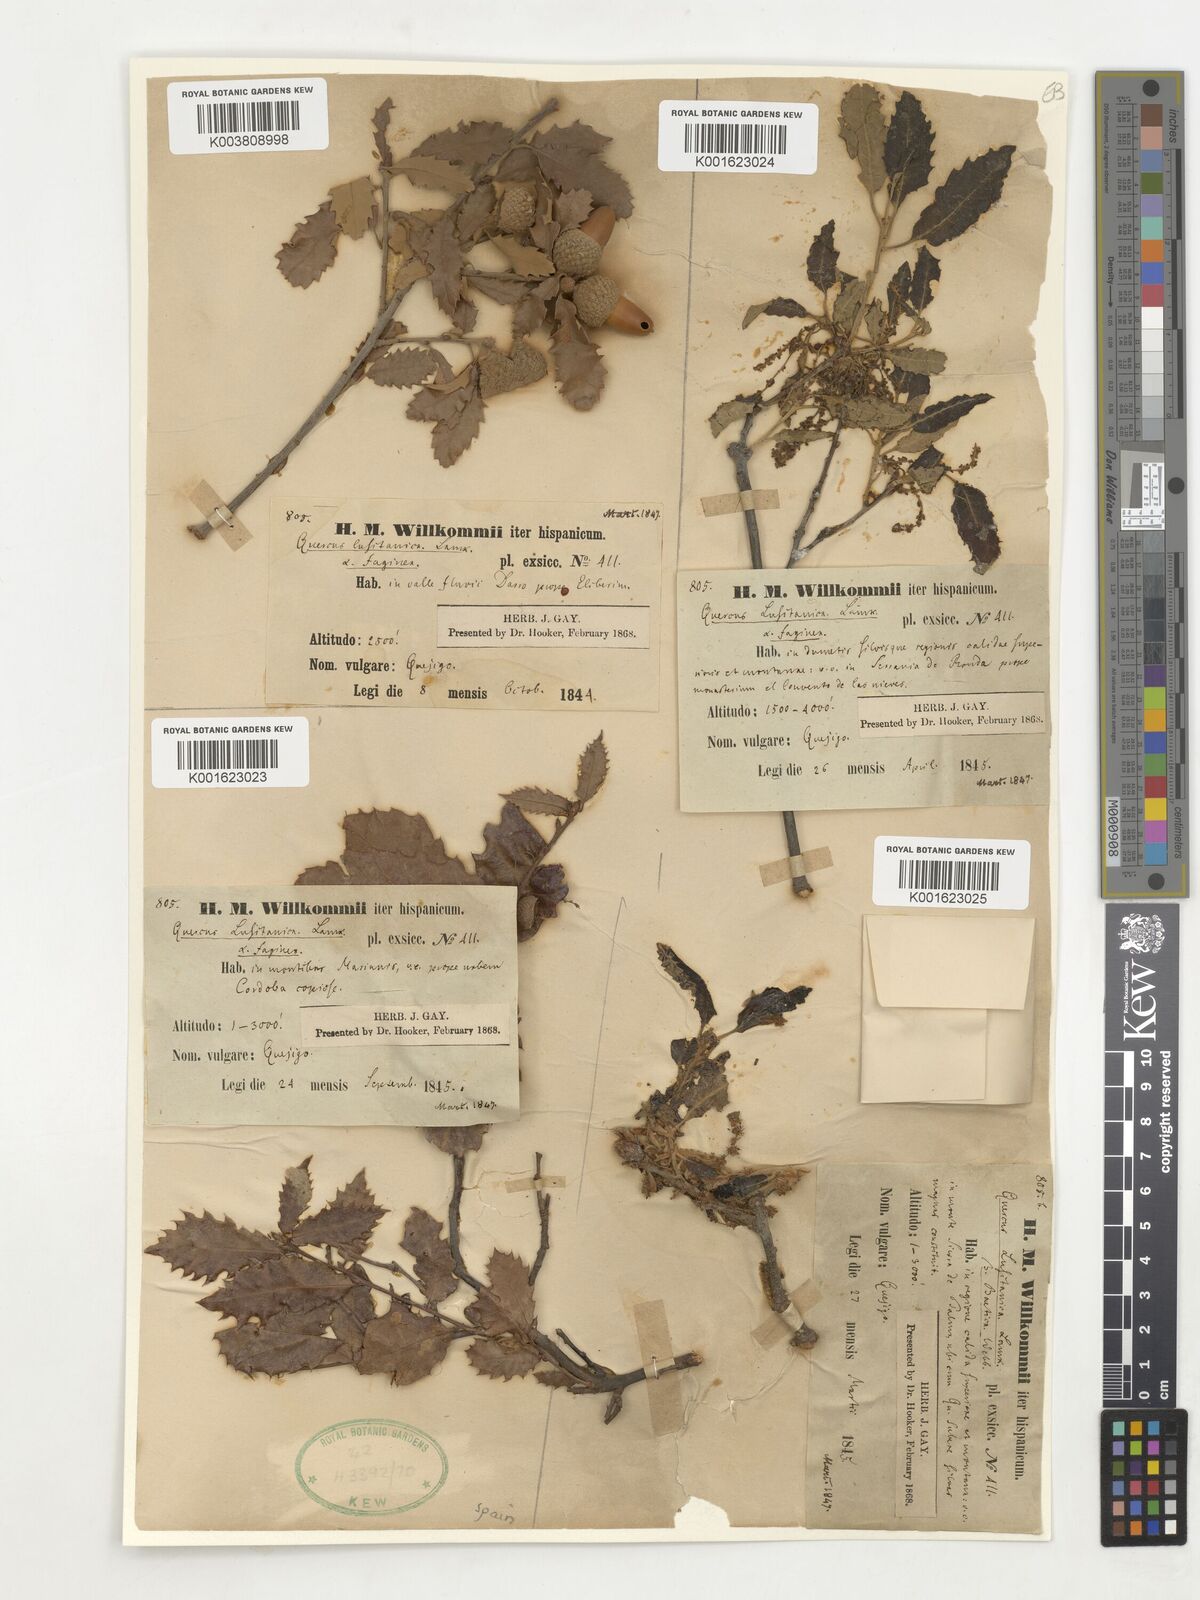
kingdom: Plantae
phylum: Tracheophyta
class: Magnoliopsida
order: Fagales
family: Fagaceae
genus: Quercus
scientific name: Quercus faginea
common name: Gall oak tree
